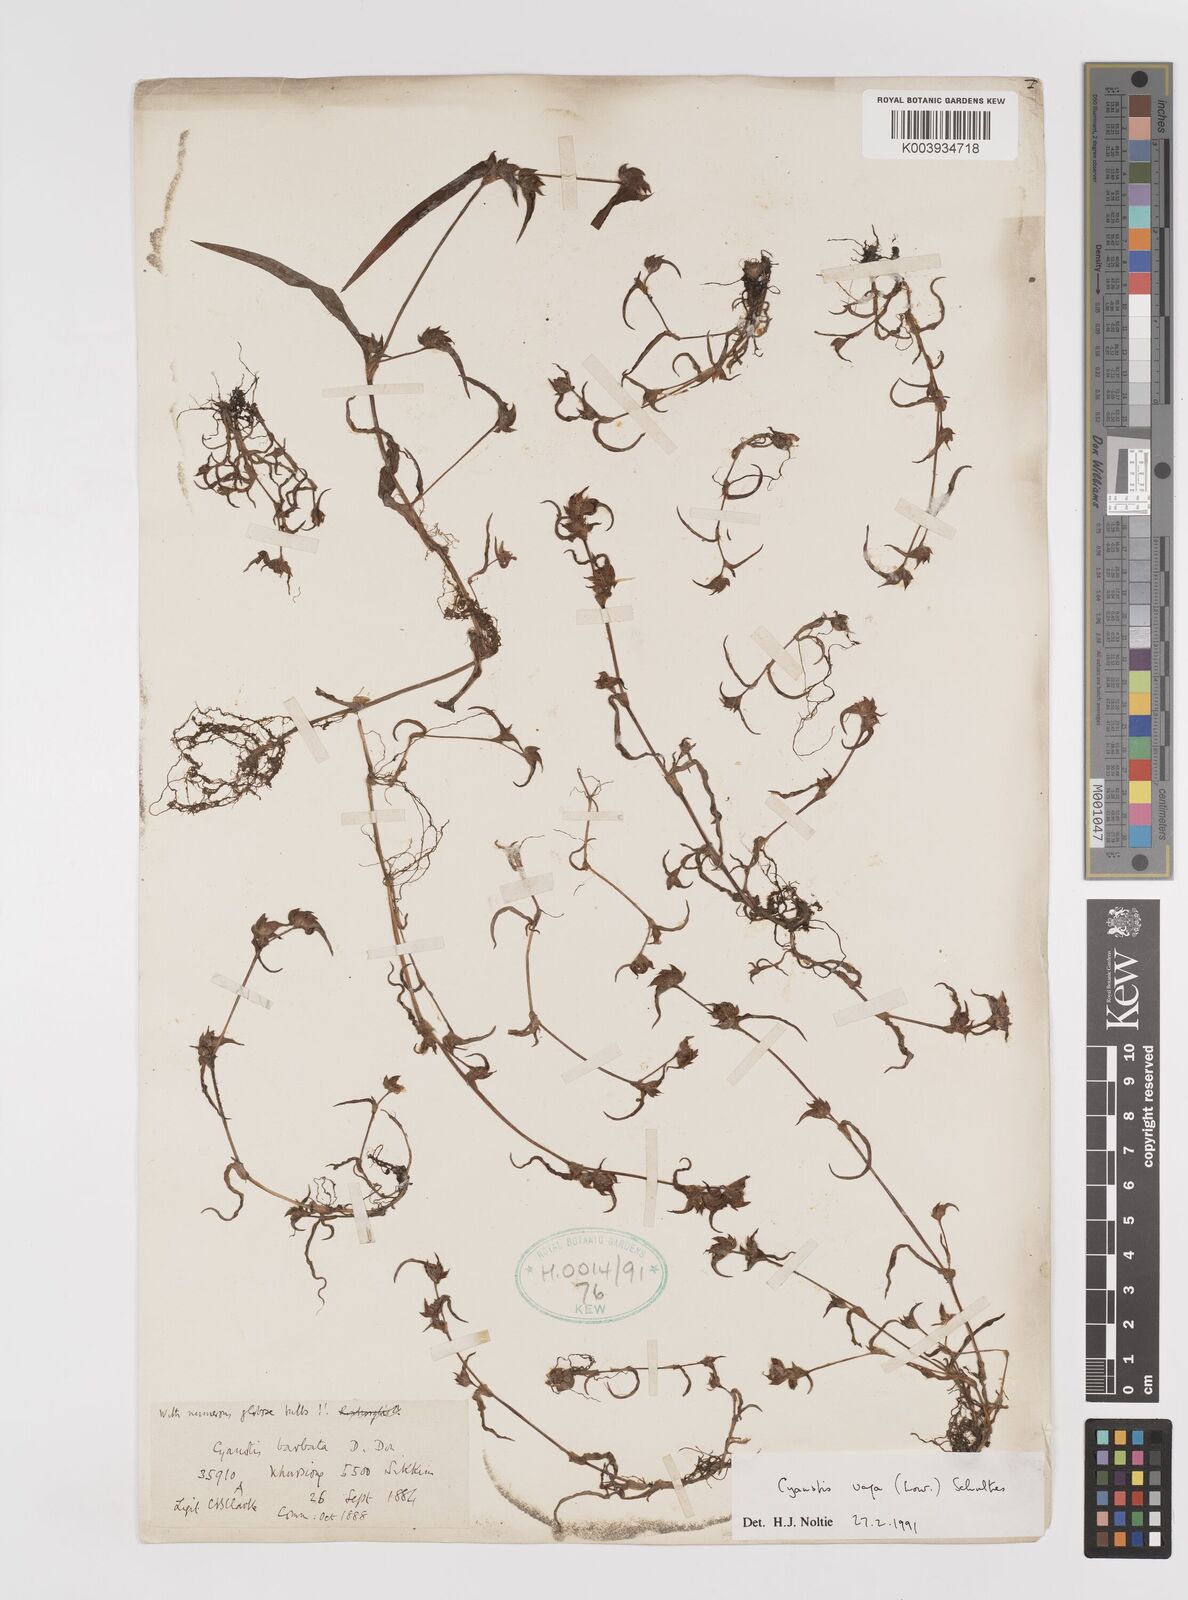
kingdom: Plantae
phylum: Tracheophyta
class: Liliopsida
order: Commelinales
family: Commelinaceae
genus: Cyanotis
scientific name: Cyanotis vaga
